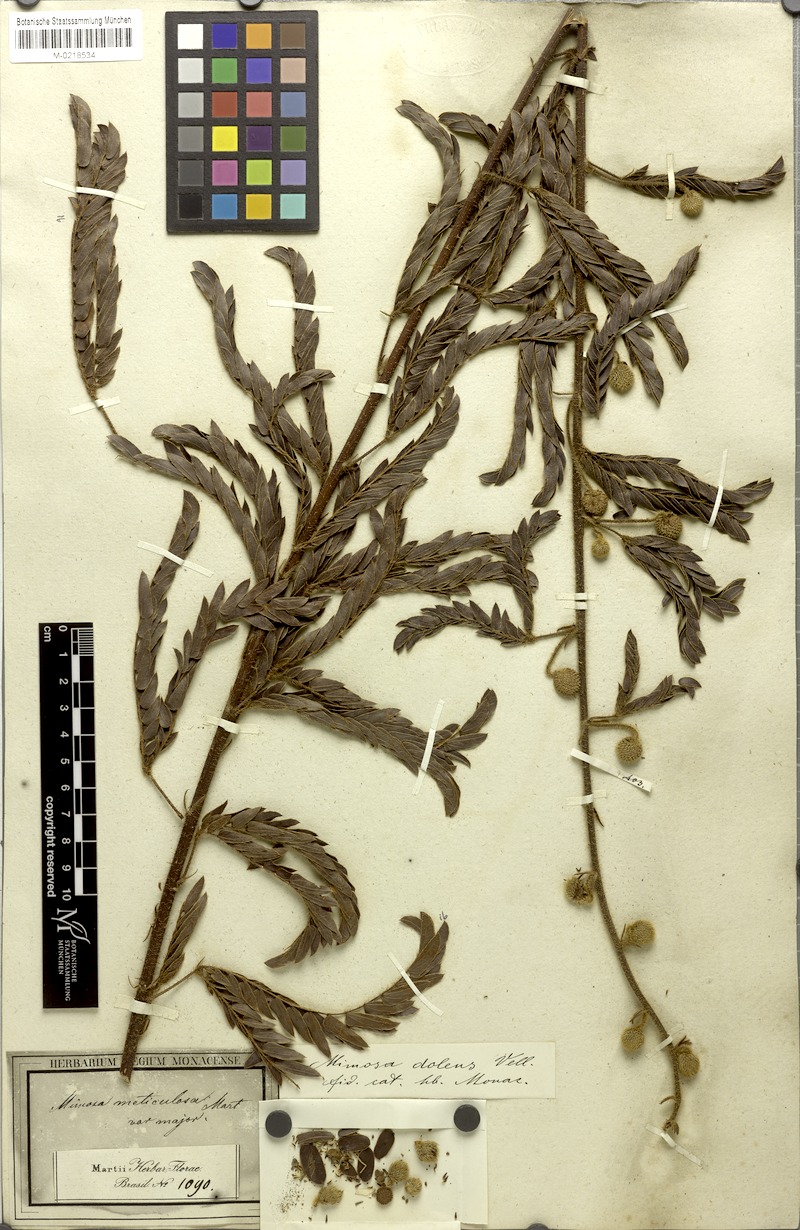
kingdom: Plantae
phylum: Tracheophyta
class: Magnoliopsida
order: Fabales
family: Fabaceae
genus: Mimosa
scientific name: Mimosa dolens
